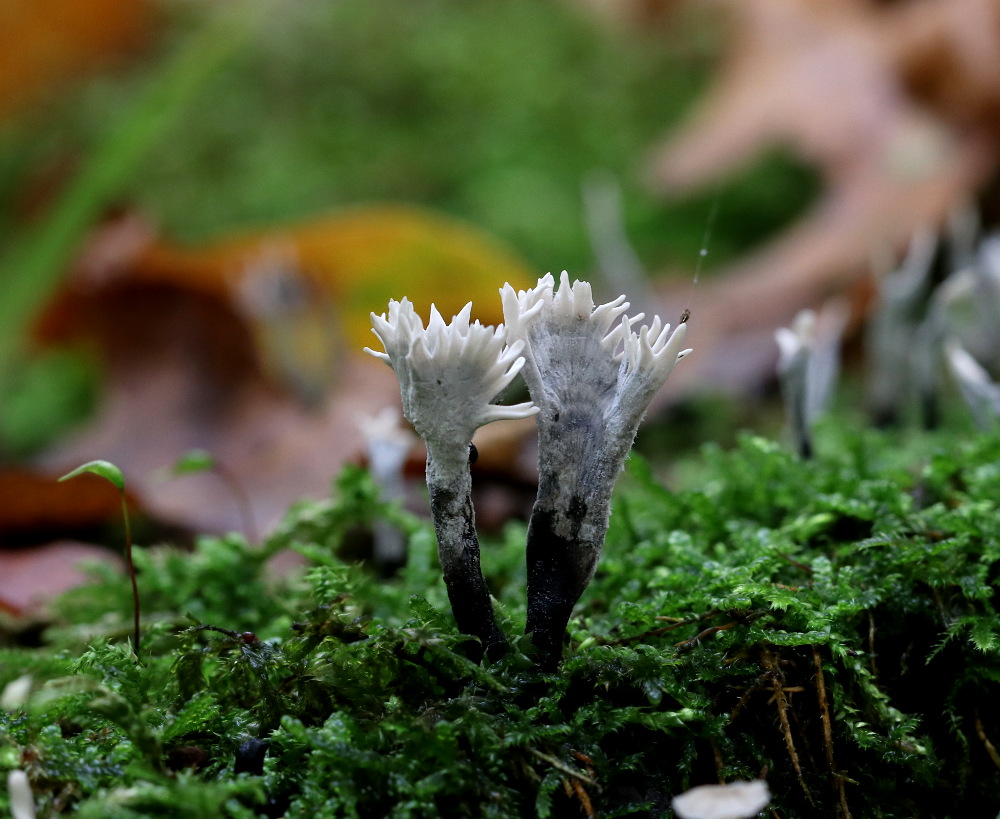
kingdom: Fungi
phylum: Ascomycota
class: Sordariomycetes
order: Xylariales
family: Xylariaceae
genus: Xylaria
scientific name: Xylaria hypoxylon
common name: grenet stødsvamp
